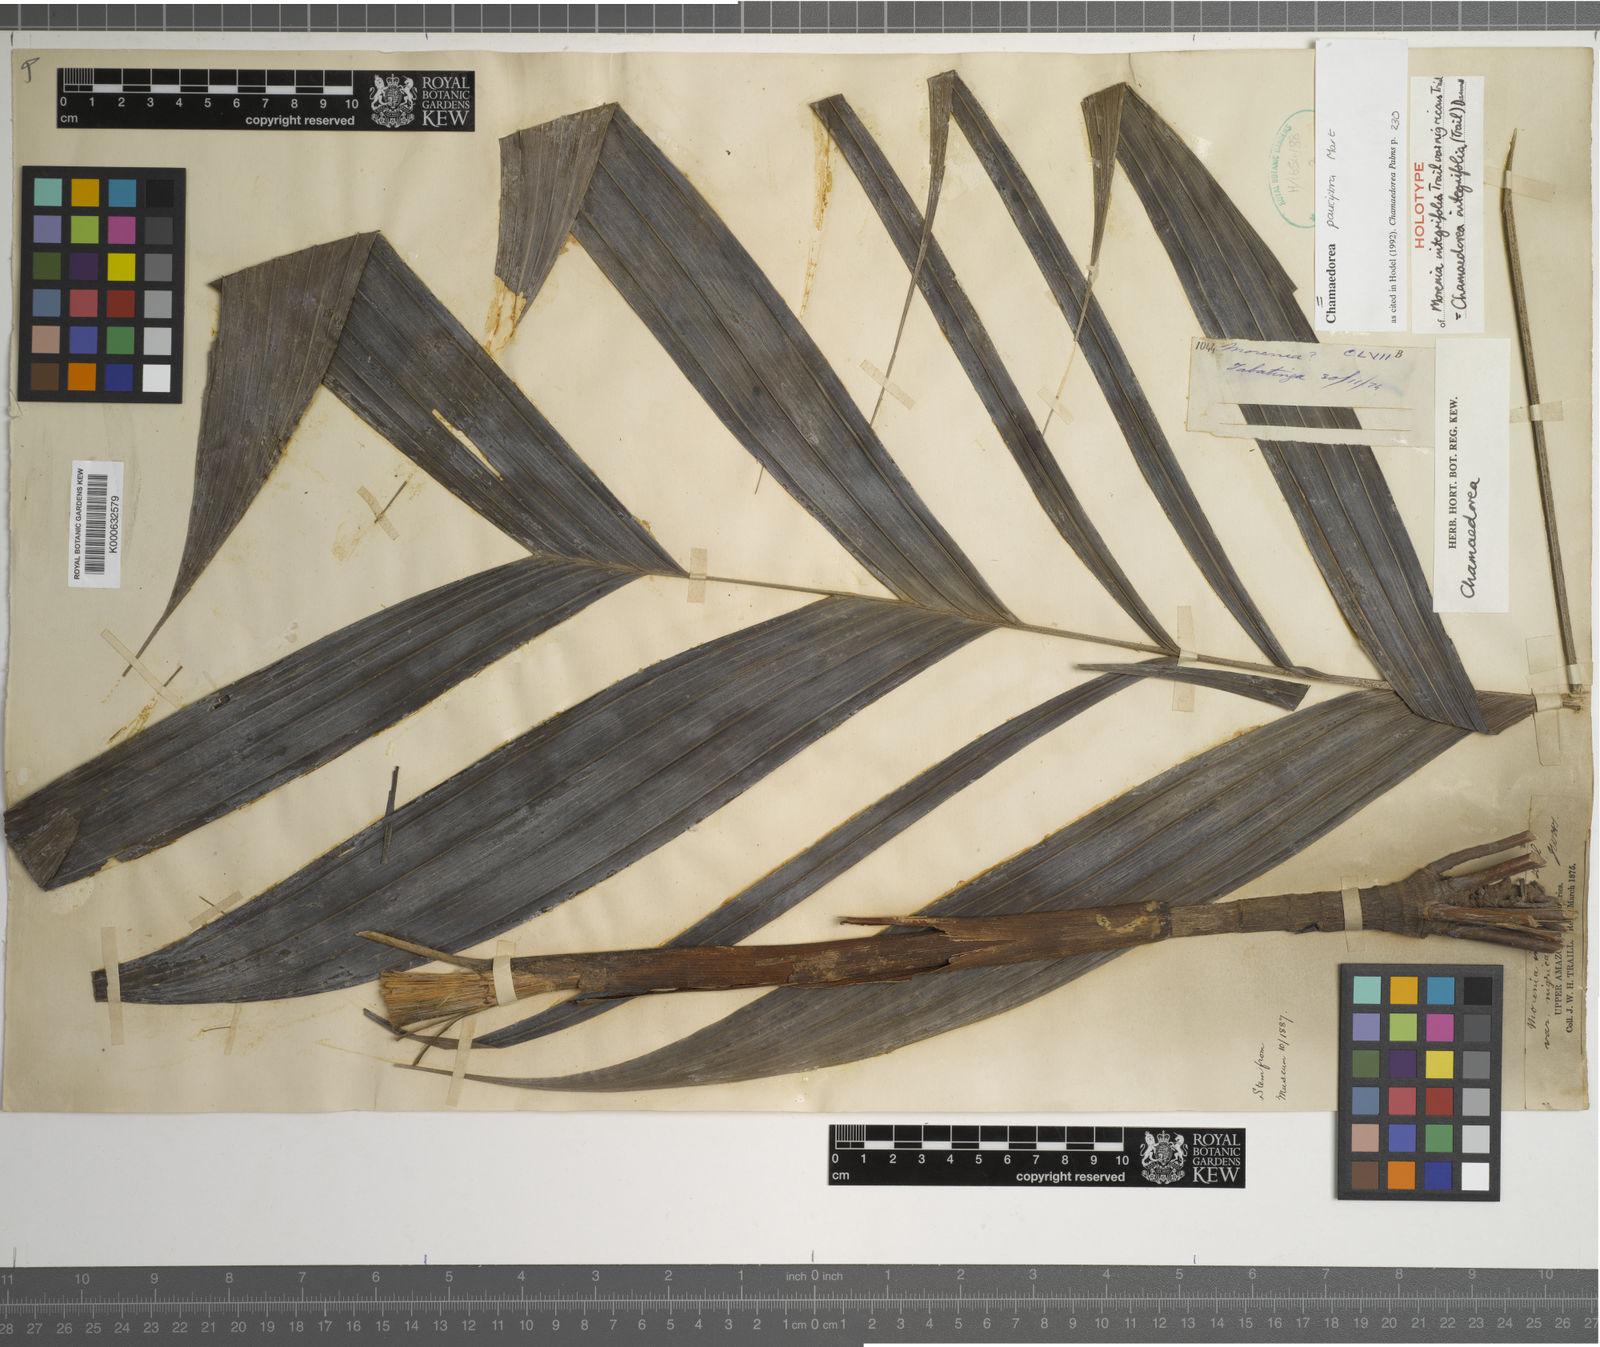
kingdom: Plantae
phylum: Tracheophyta
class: Liliopsida
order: Arecales
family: Arecaceae
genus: Chamaedorea
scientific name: Chamaedorea pauciflora
